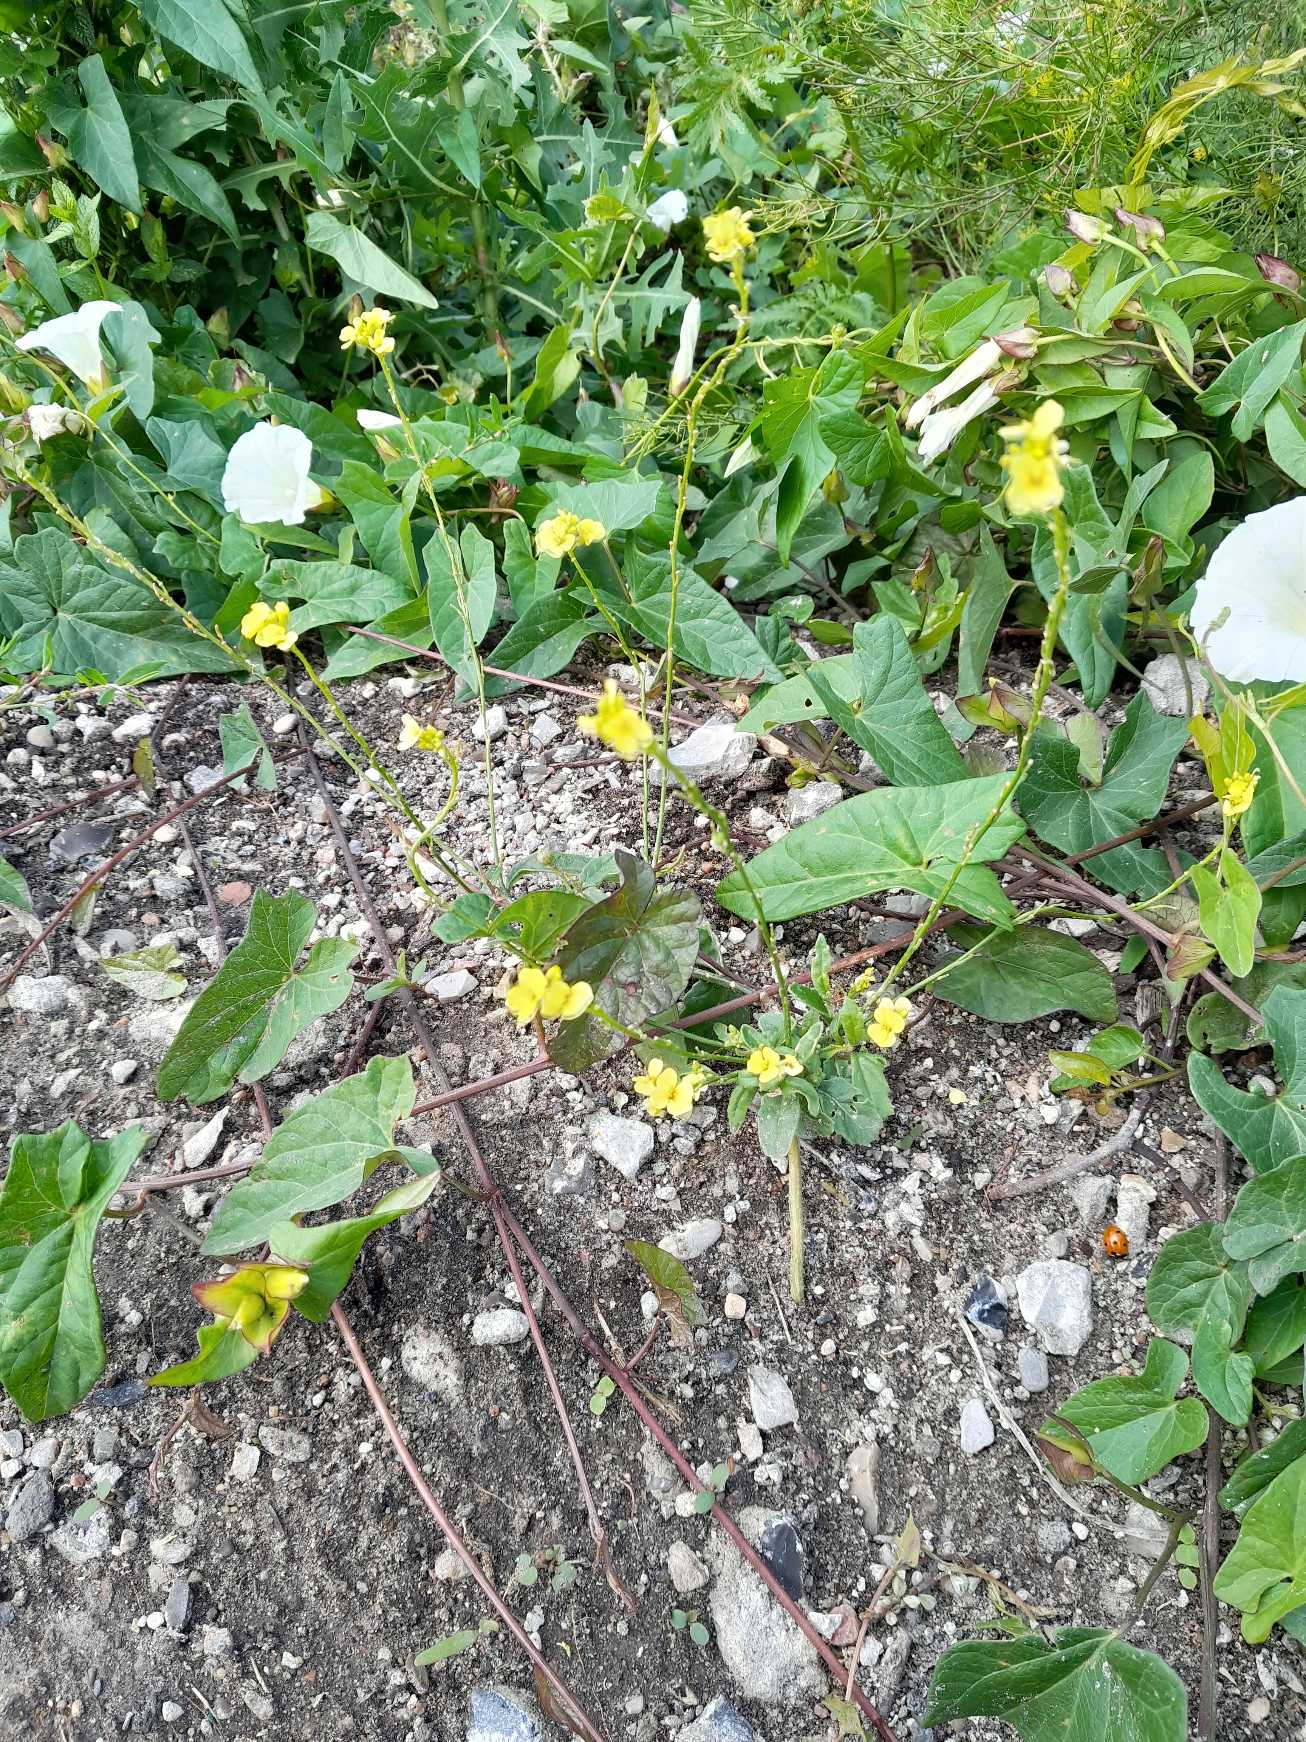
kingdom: Plantae
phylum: Tracheophyta
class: Magnoliopsida
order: Brassicales
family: Brassicaceae
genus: Rapistrum
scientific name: Rapistrum rugosum
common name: Knopskulpe
